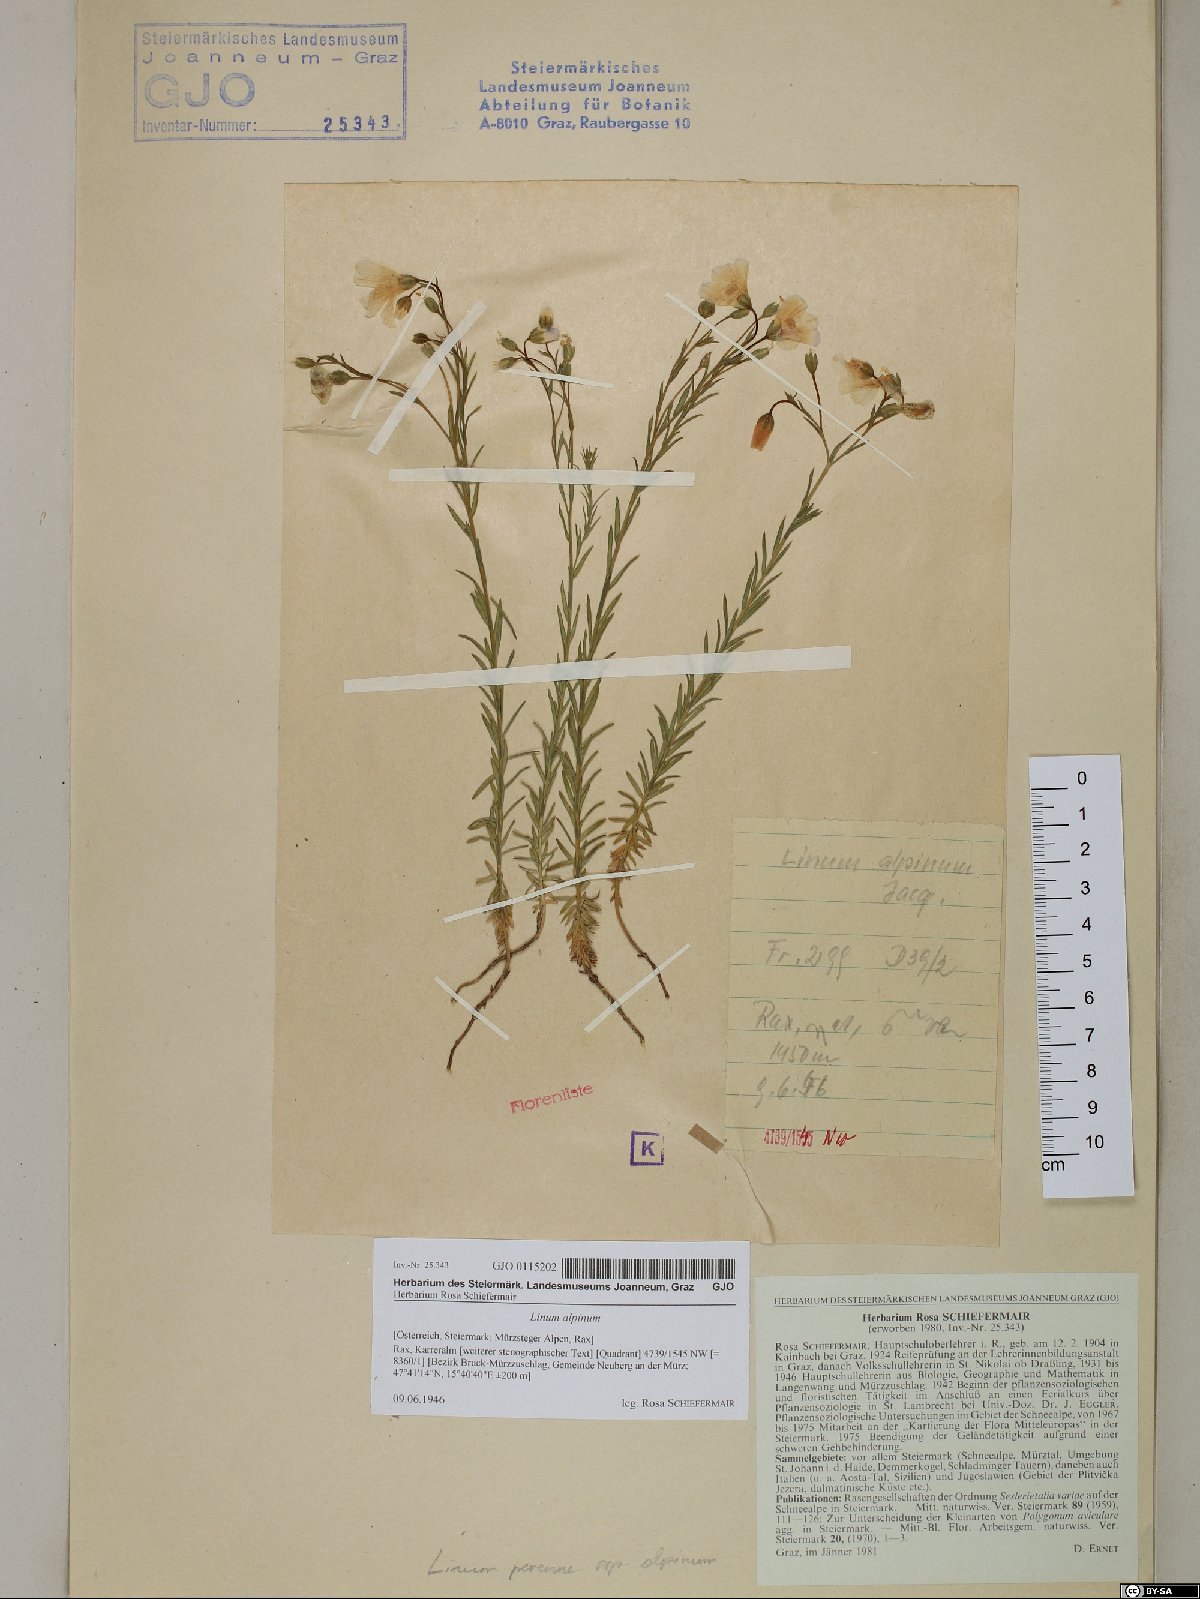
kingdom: Plantae
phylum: Tracheophyta
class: Magnoliopsida
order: Malpighiales
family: Linaceae
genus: Linum
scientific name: Linum alpinum
